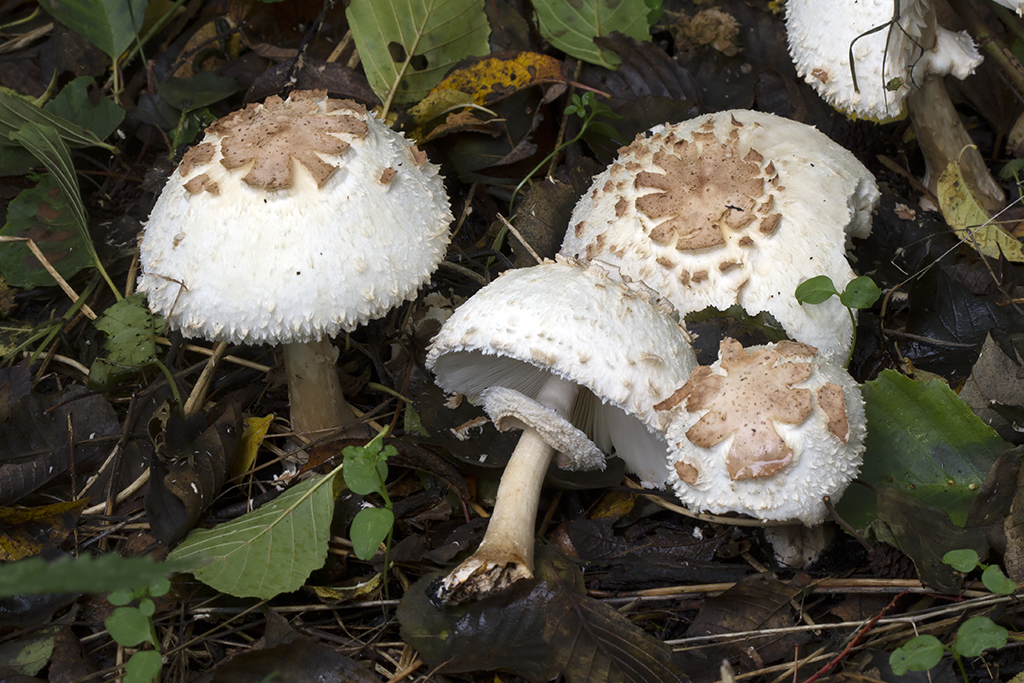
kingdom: Fungi
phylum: Basidiomycota
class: Agaricomycetes
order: Agaricales
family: Agaricaceae
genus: Chlorophyllum
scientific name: Chlorophyllum brunneum
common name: giftig rabarberhat
